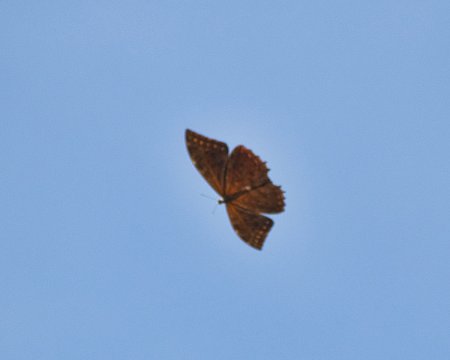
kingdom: Animalia
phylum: Arthropoda
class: Insecta
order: Lepidoptera
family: Nymphalidae
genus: Morpho
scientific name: Morpho theseus
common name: Stub-tailed Morpho
